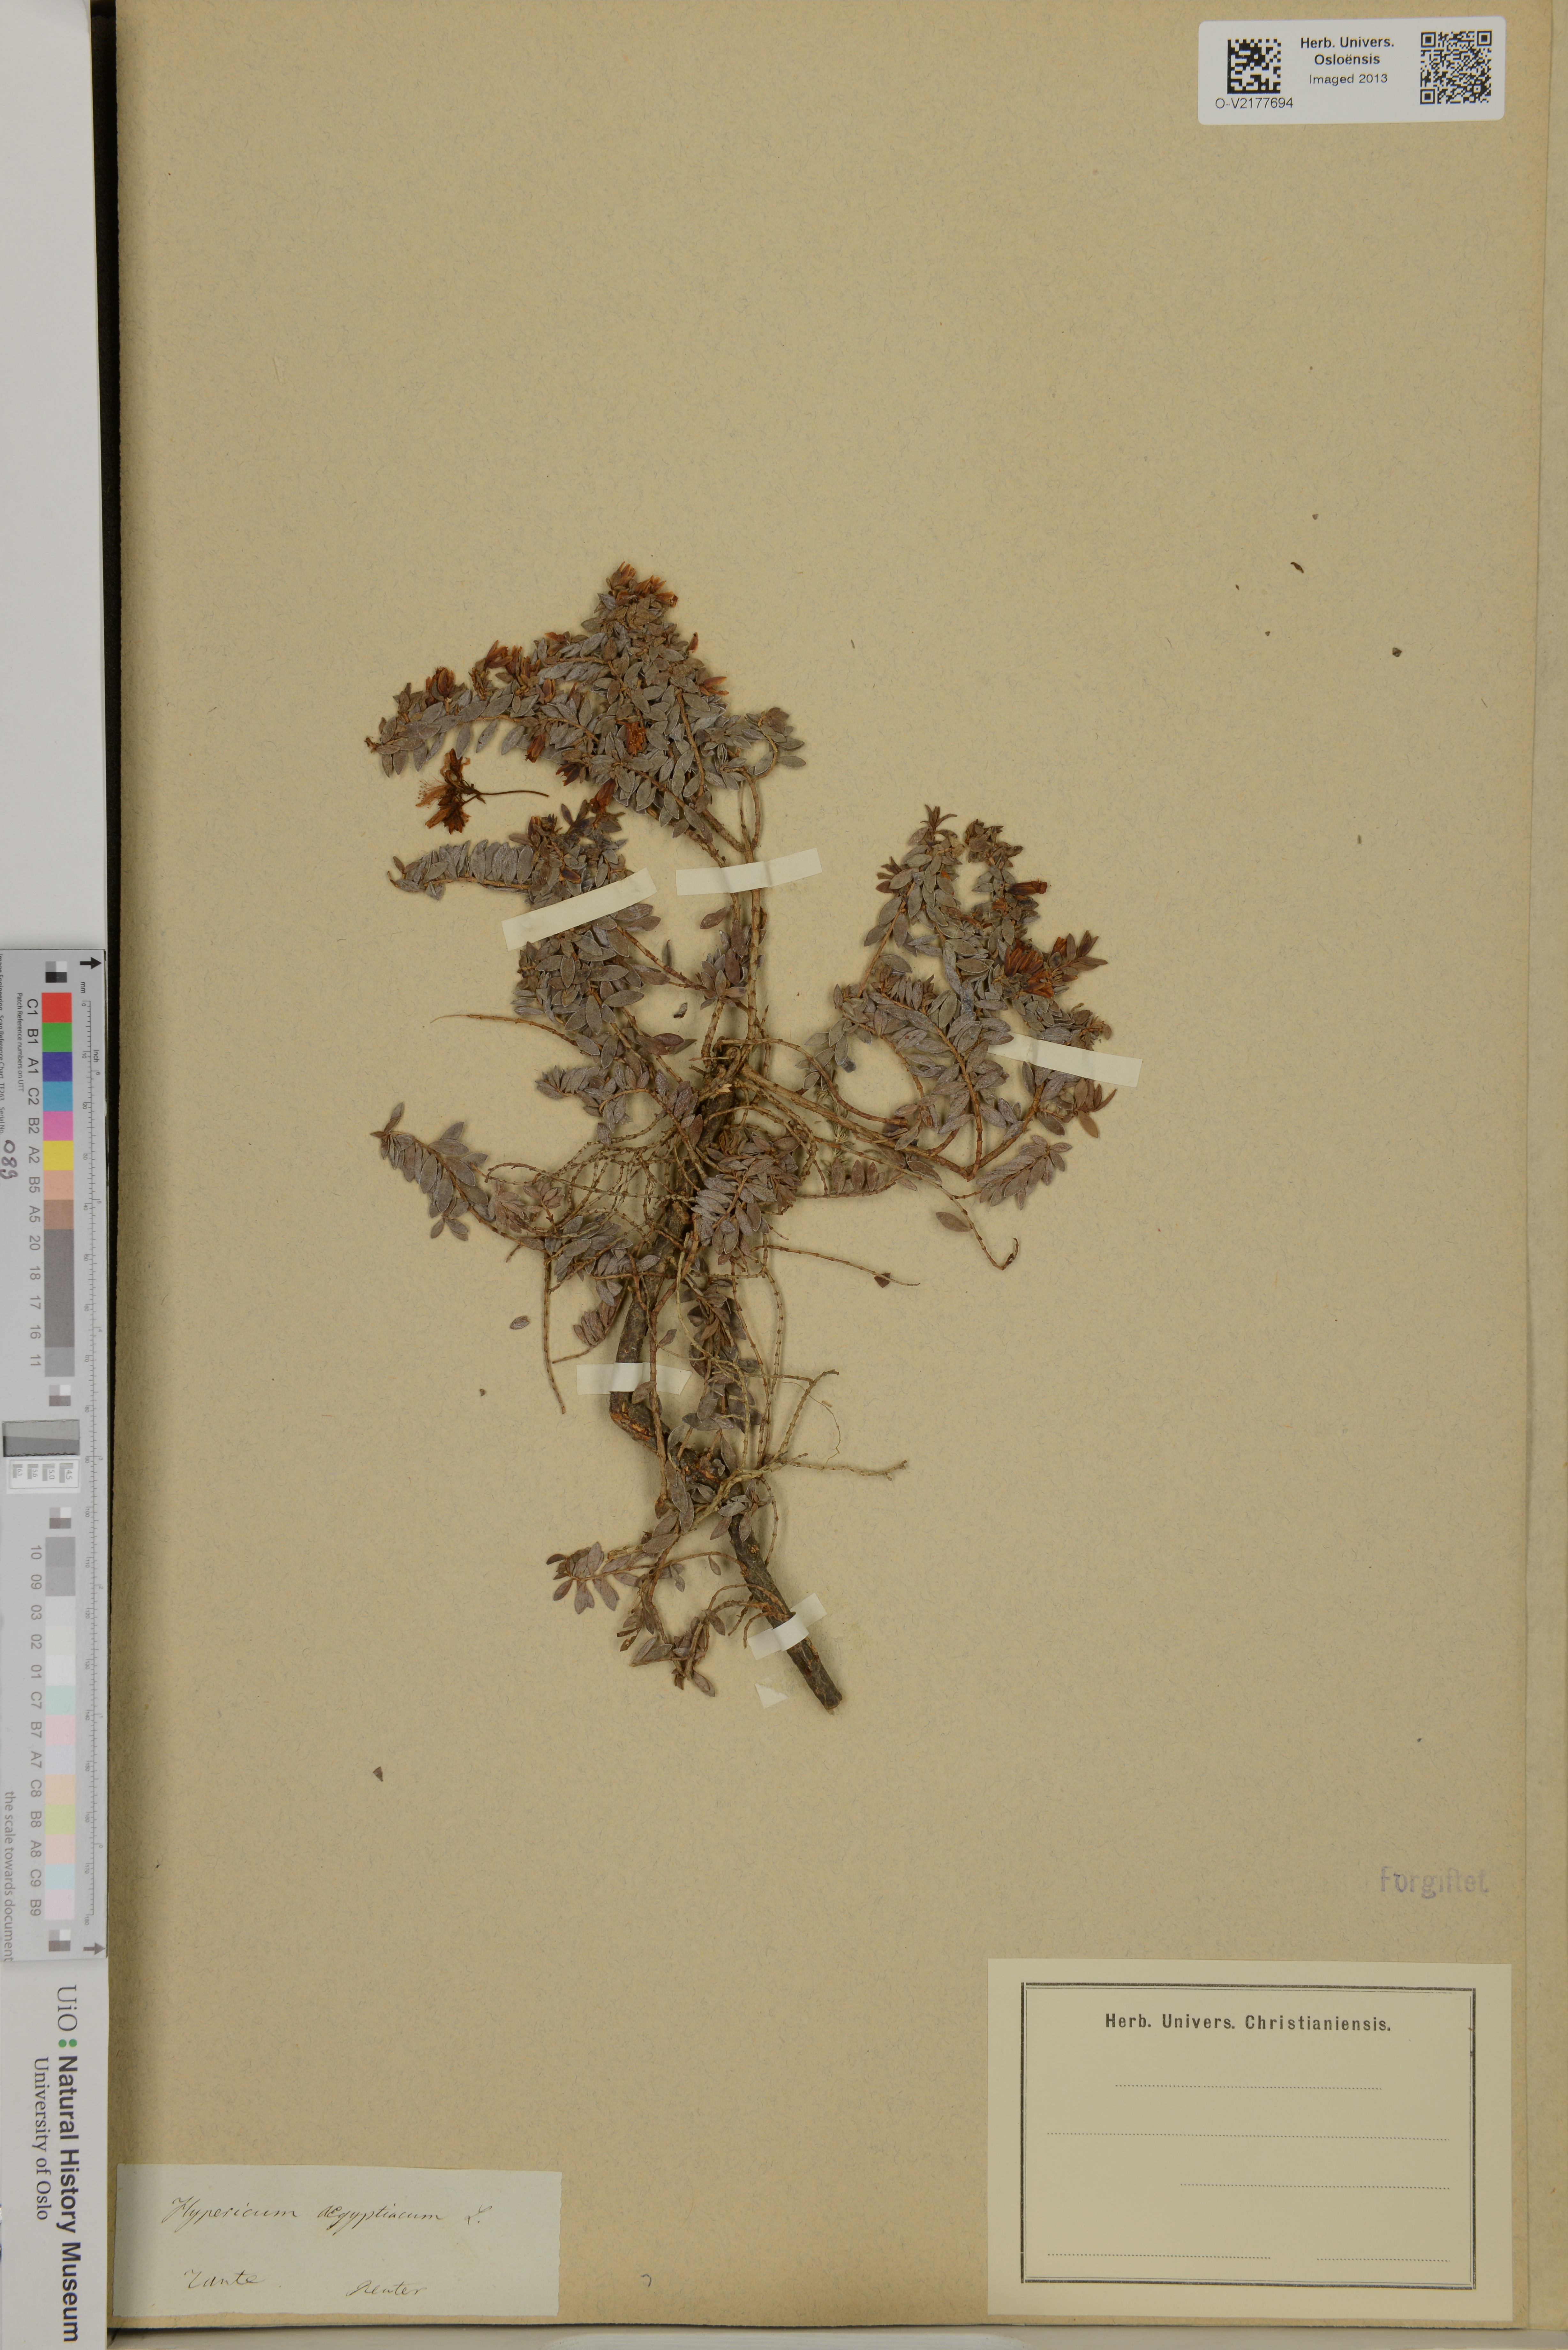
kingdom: Plantae
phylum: Tracheophyta
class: Magnoliopsida
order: Malpighiales
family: Hypericaceae
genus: Hypericum
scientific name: Hypericum aegypticum
